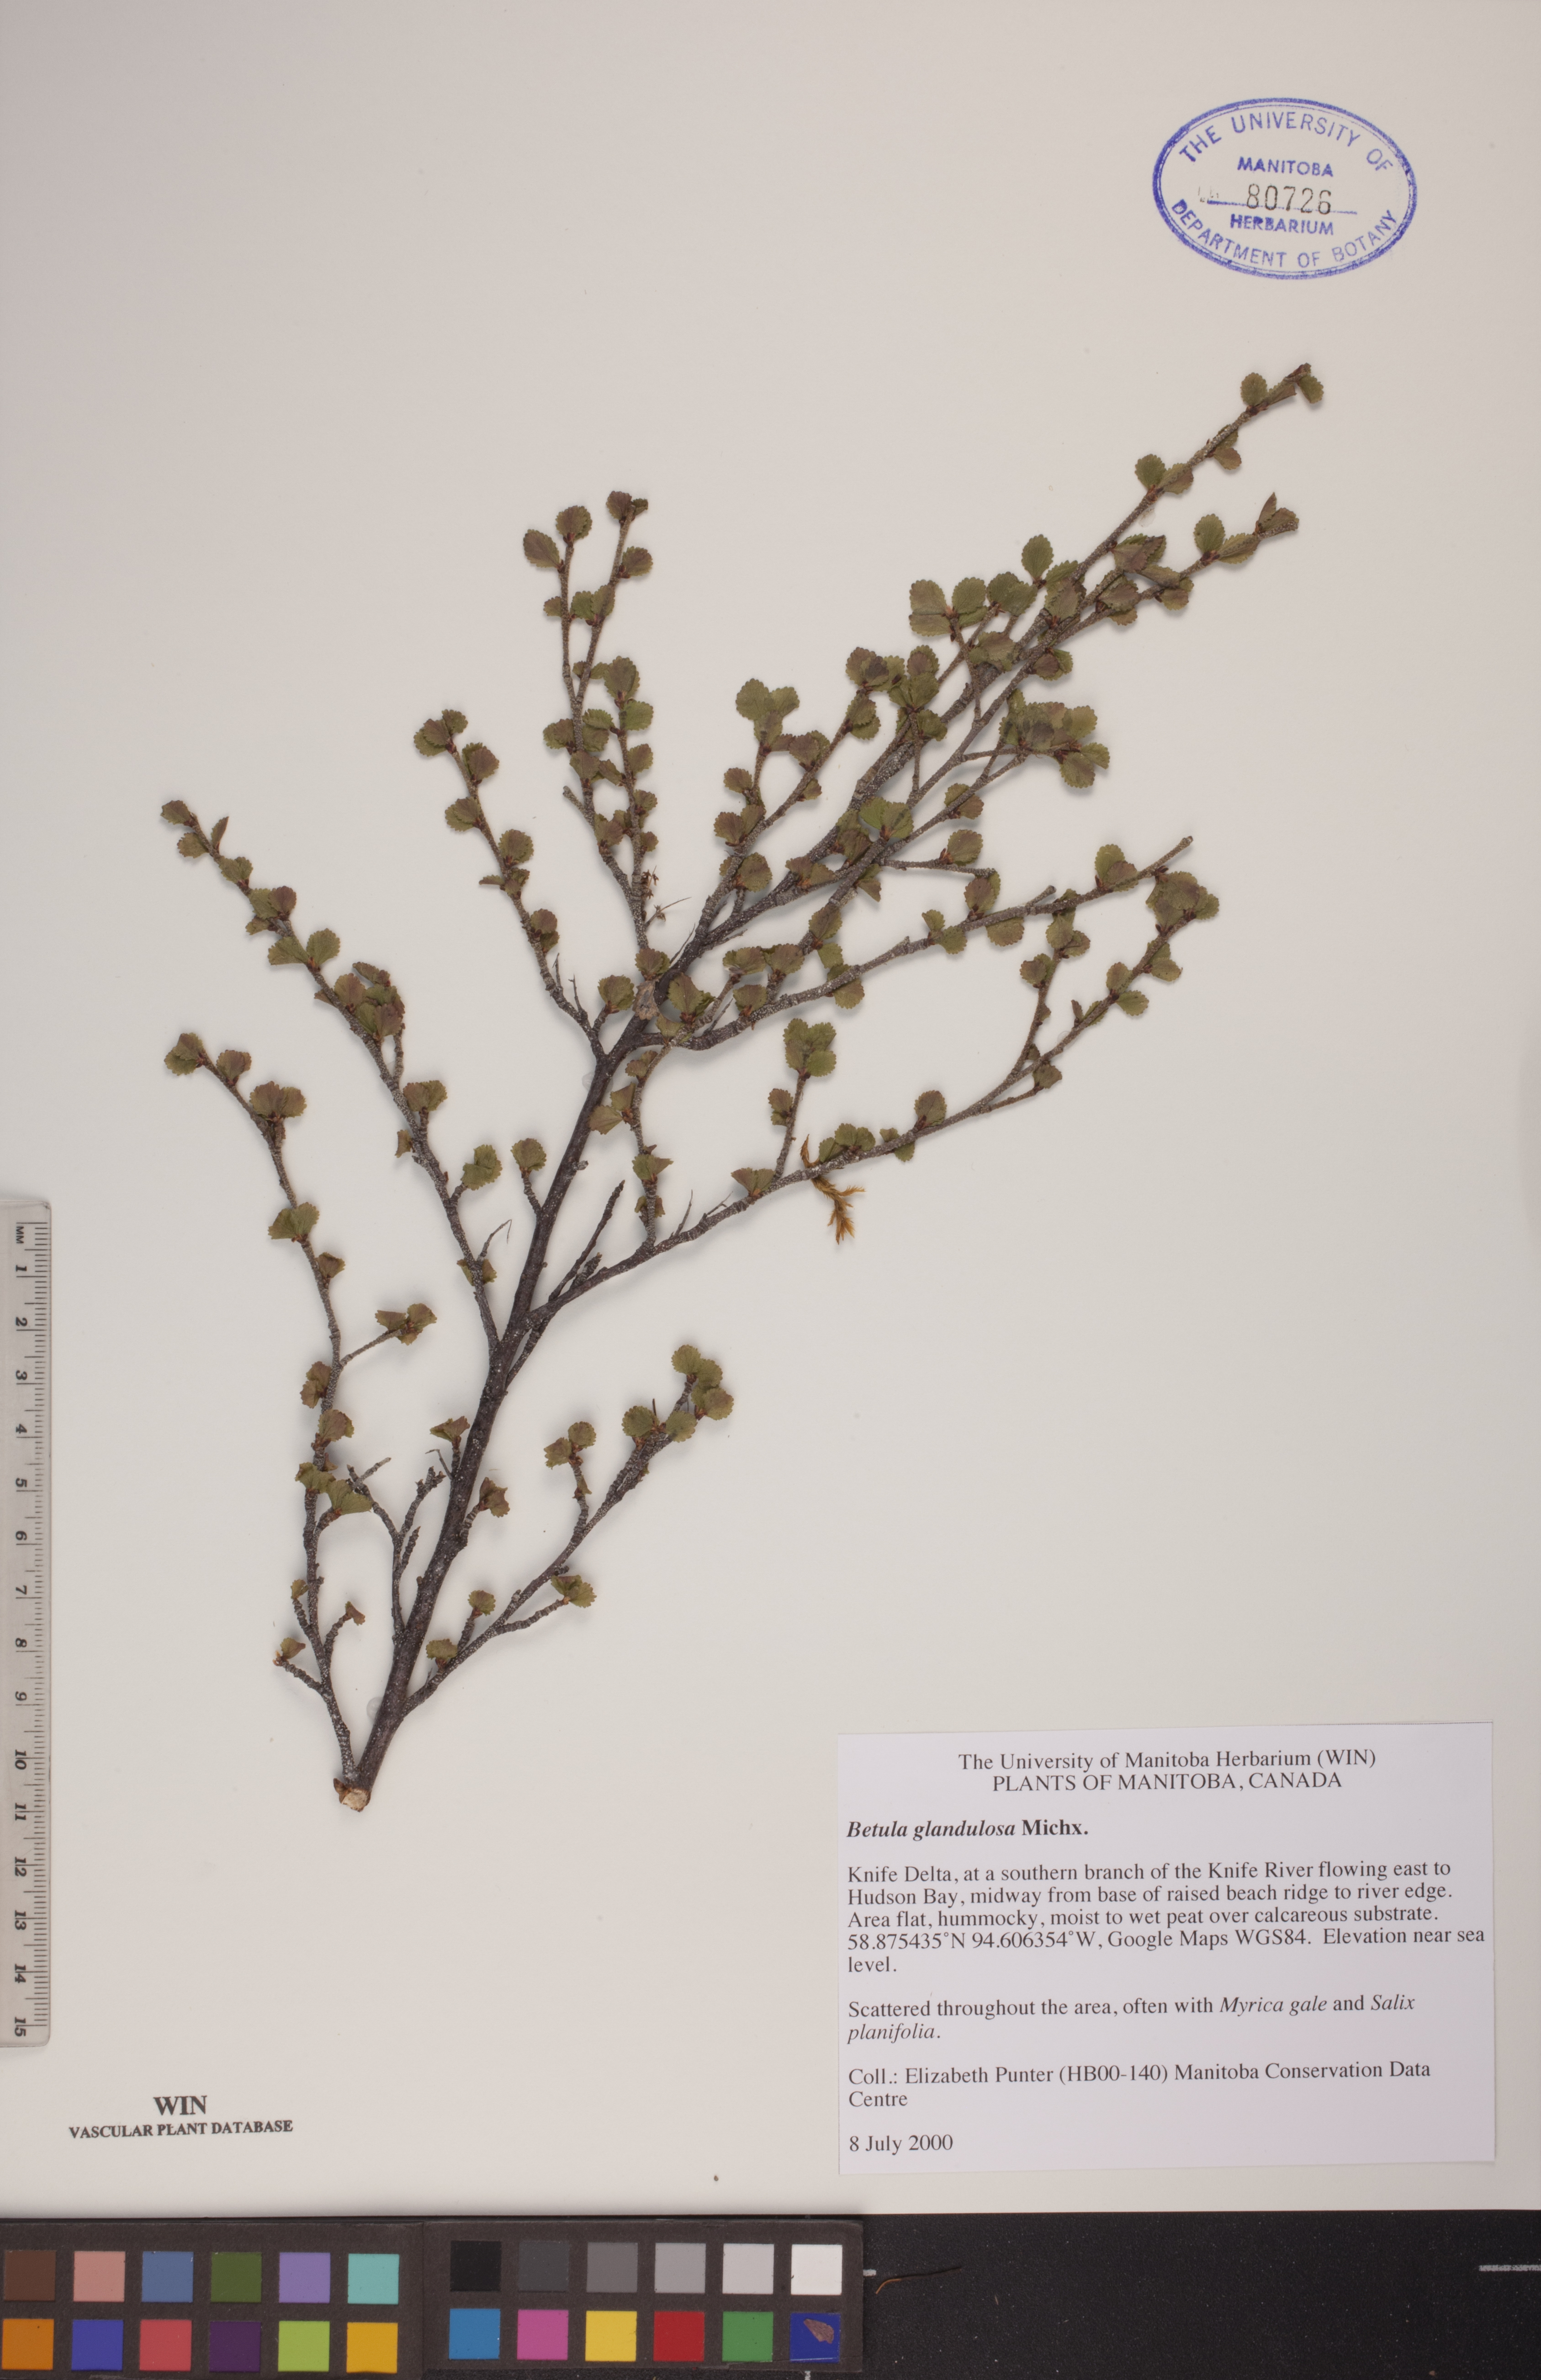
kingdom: Plantae
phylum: Tracheophyta
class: Magnoliopsida
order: Fagales
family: Betulaceae
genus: Betula
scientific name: Betula glandulosa
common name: Dwarf birch
